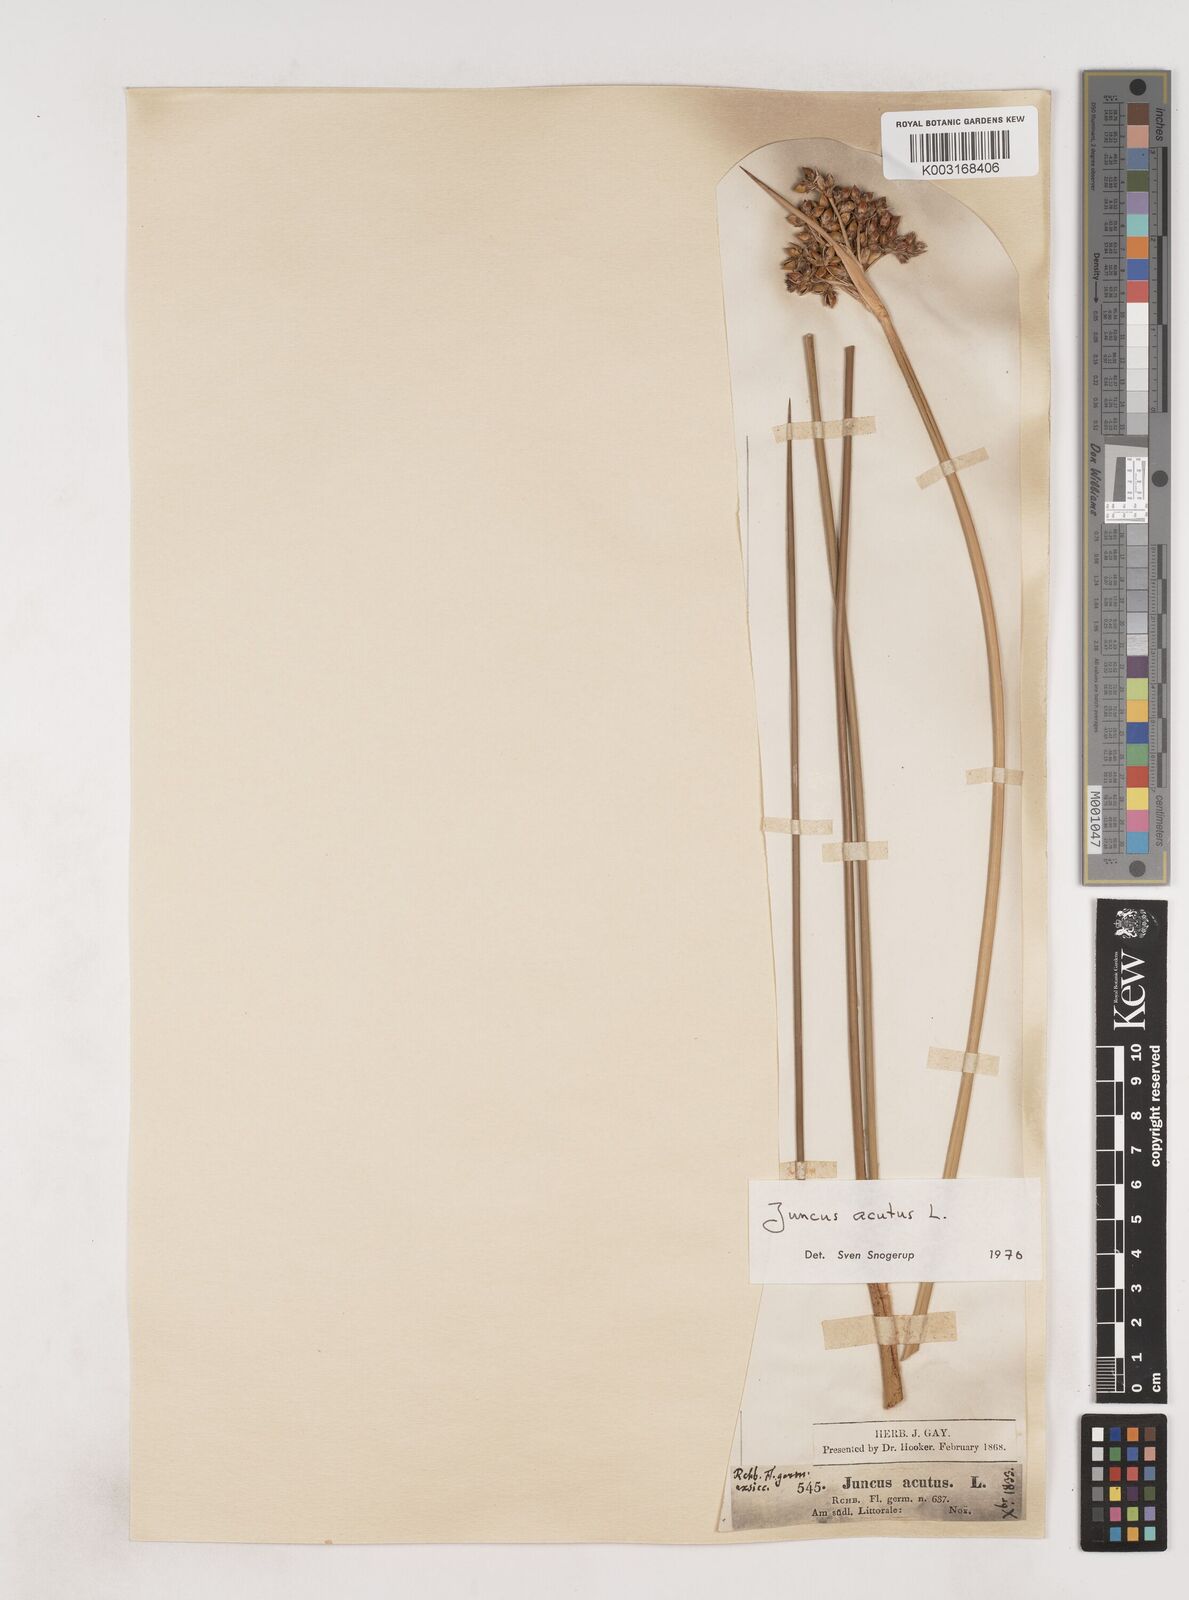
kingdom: Plantae
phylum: Tracheophyta
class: Liliopsida
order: Poales
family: Juncaceae
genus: Juncus
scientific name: Juncus acutus
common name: Sharp rush
